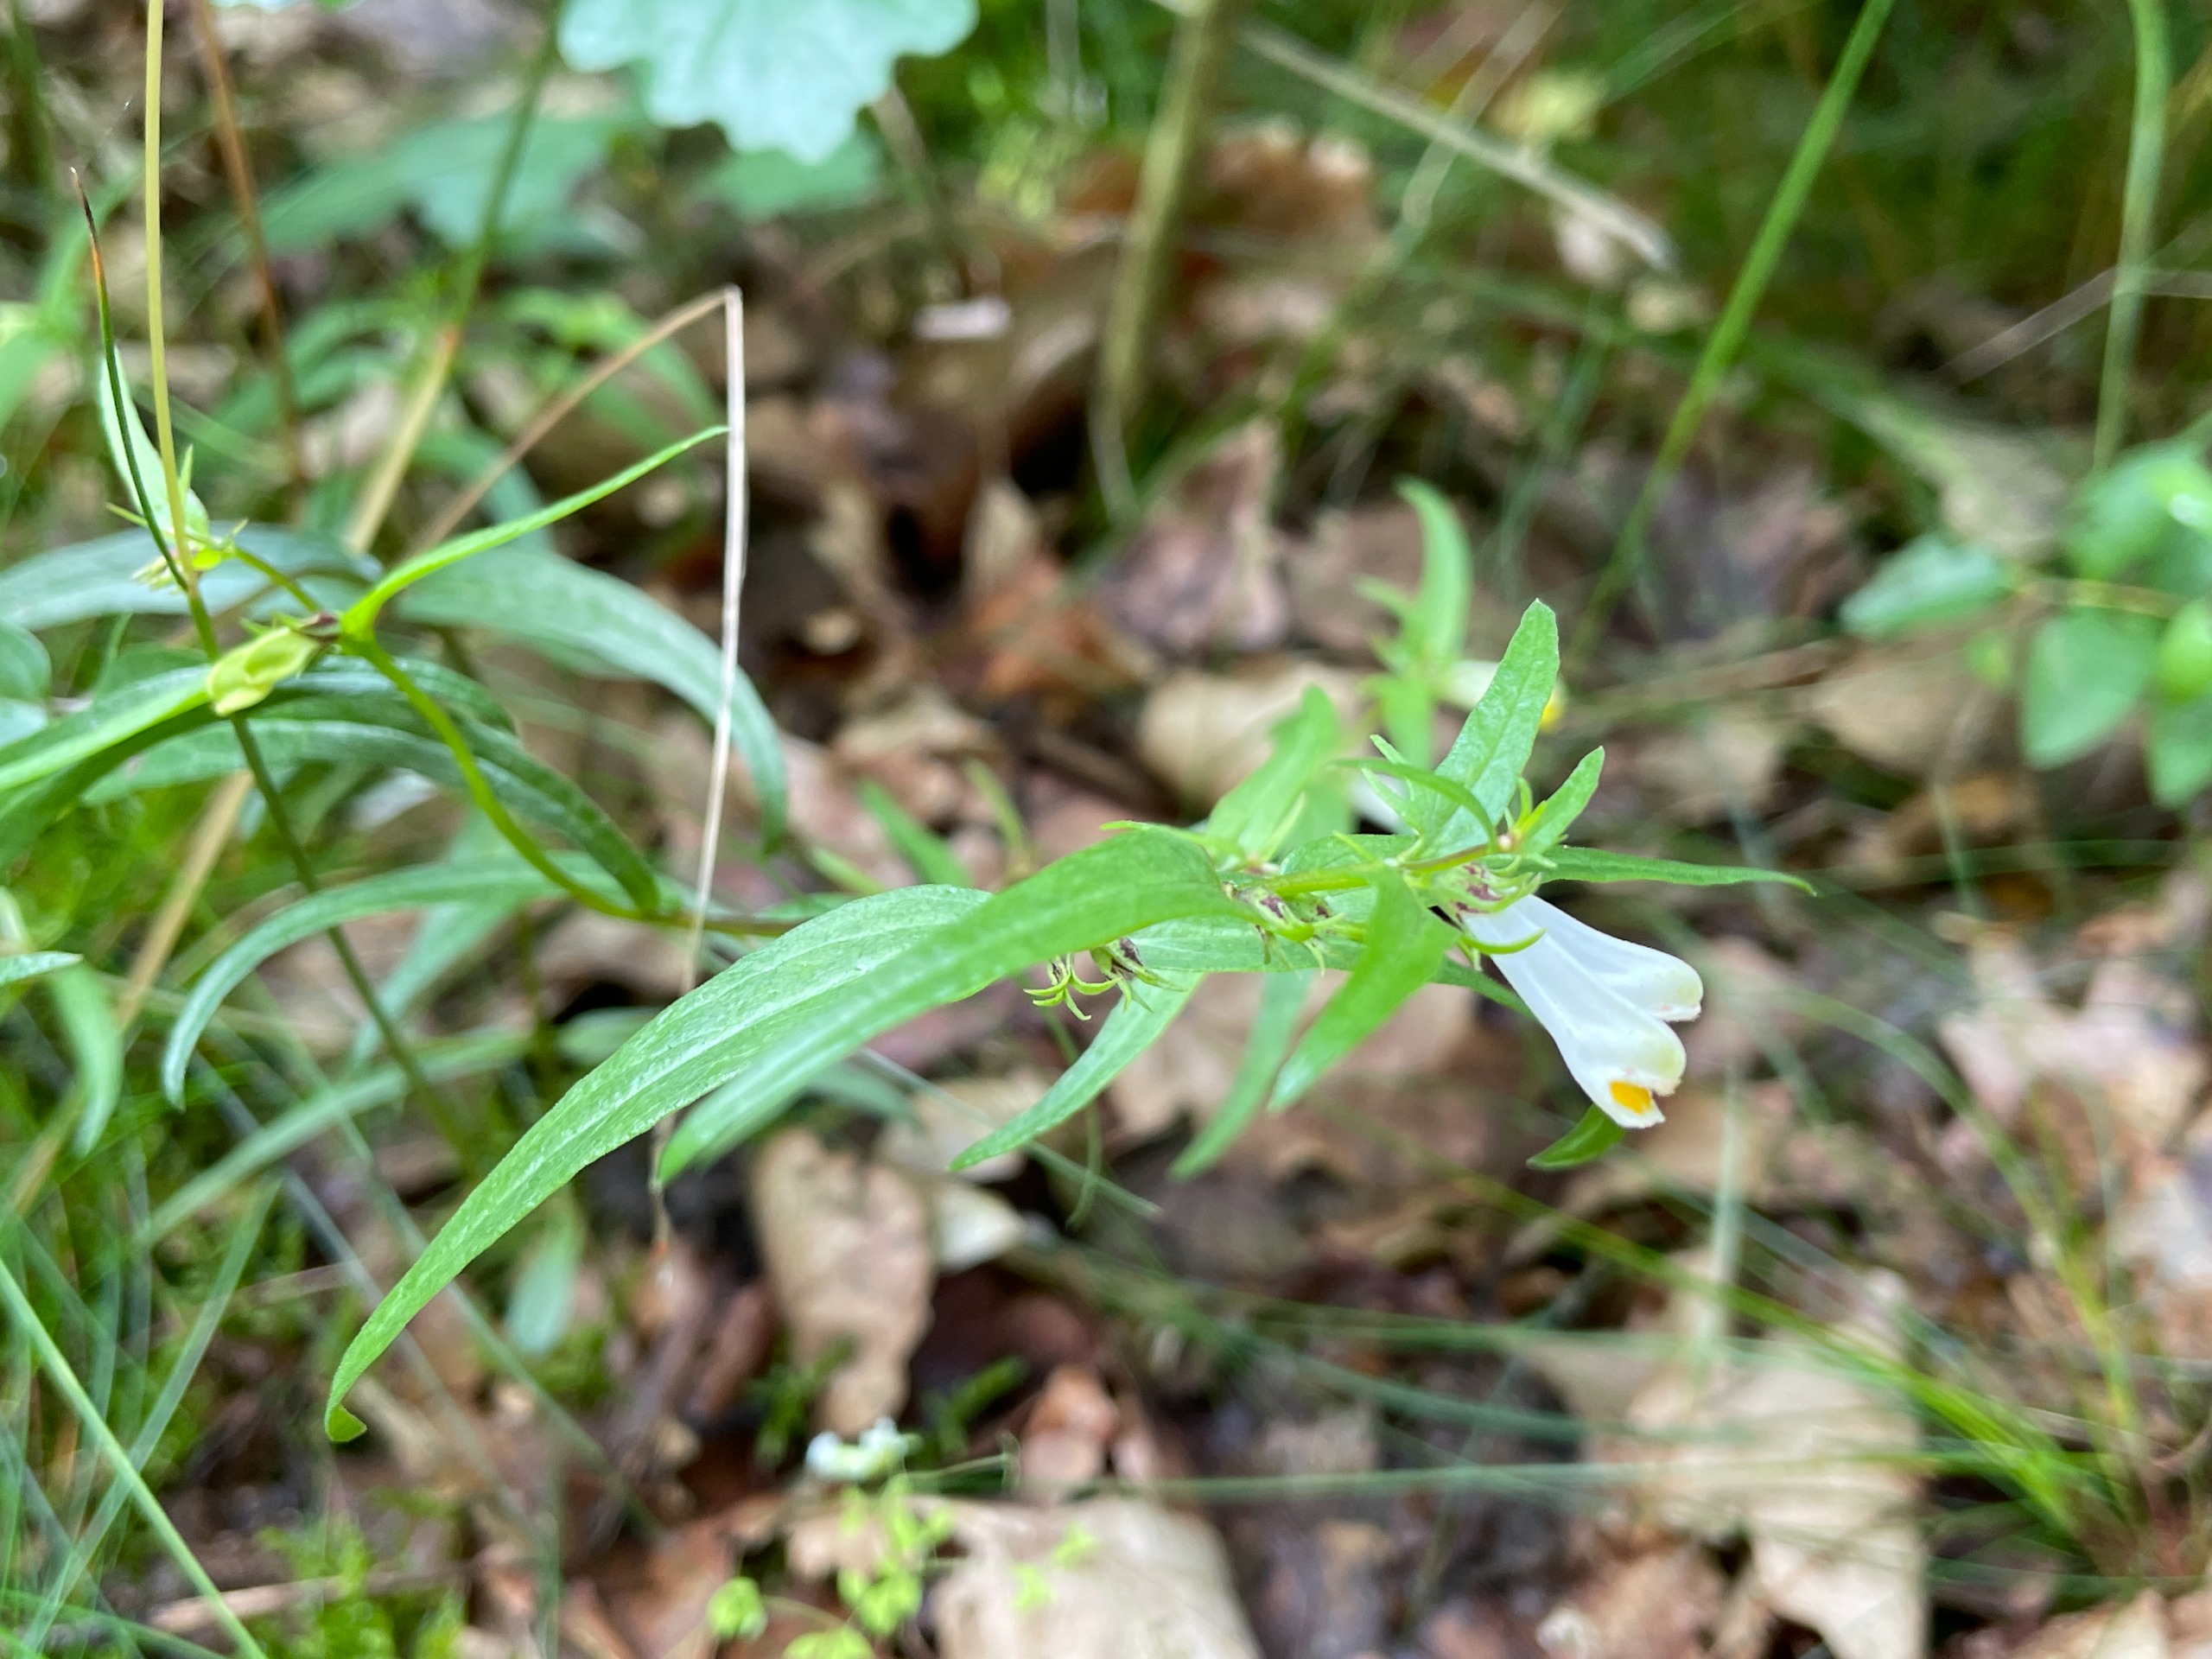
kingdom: Plantae
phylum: Tracheophyta
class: Magnoliopsida
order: Lamiales
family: Orobanchaceae
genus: Melampyrum
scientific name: Melampyrum pratense
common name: Almindelig kohvede
